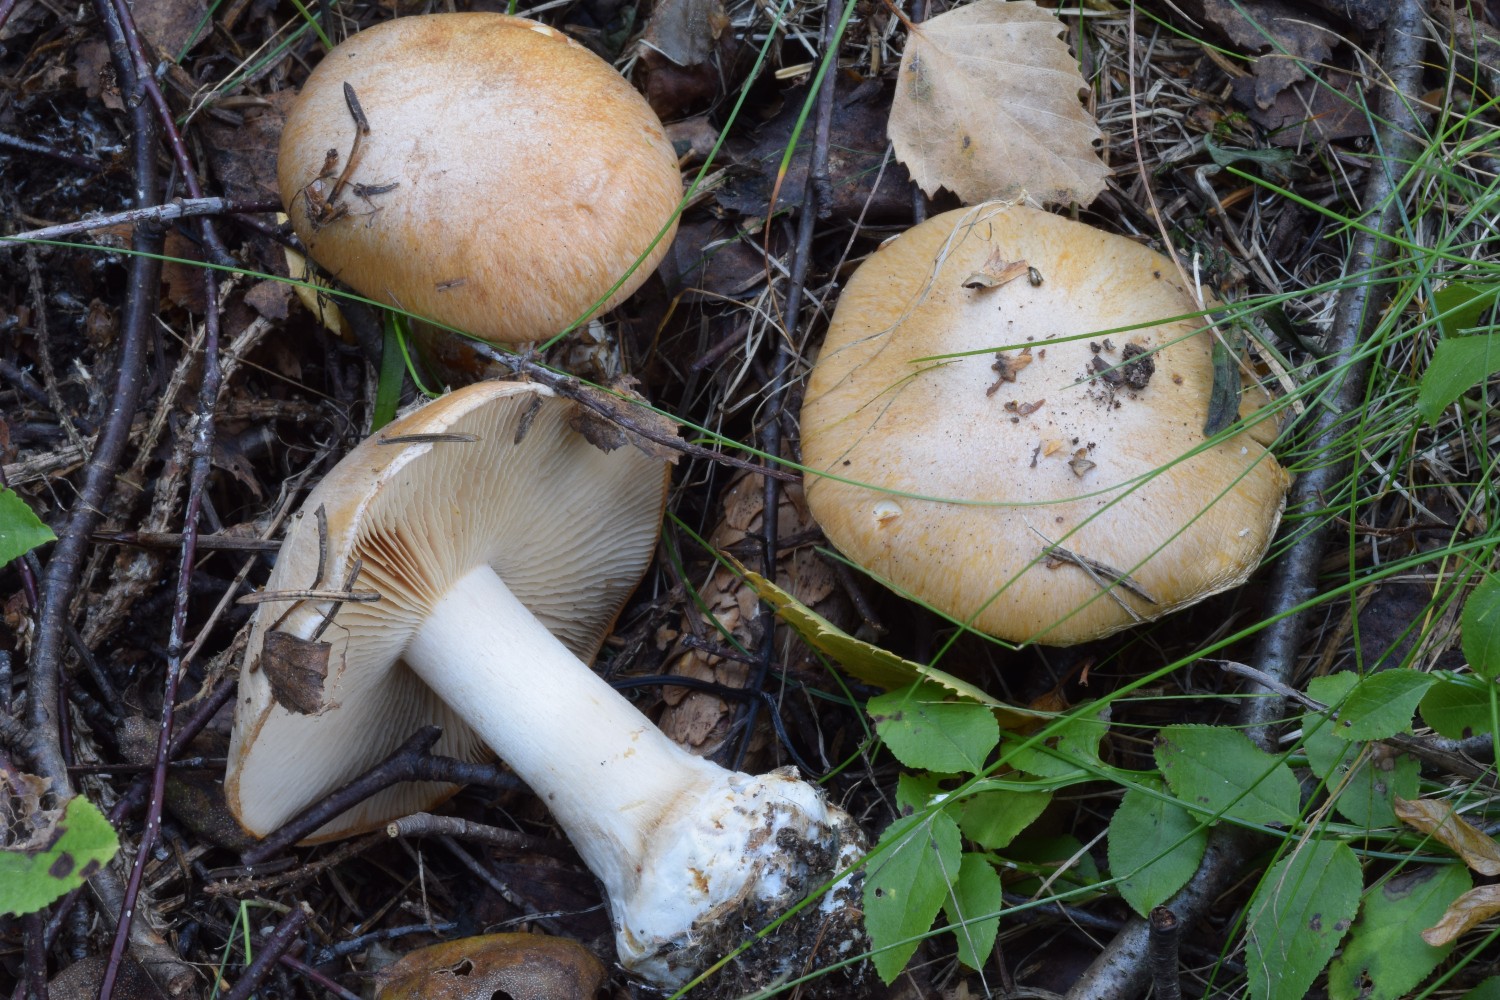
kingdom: Fungi
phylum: Basidiomycota
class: Agaricomycetes
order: Agaricales
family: Cortinariaceae
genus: Thaxterogaster
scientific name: Thaxterogaster talus
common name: knogle-slørhat
